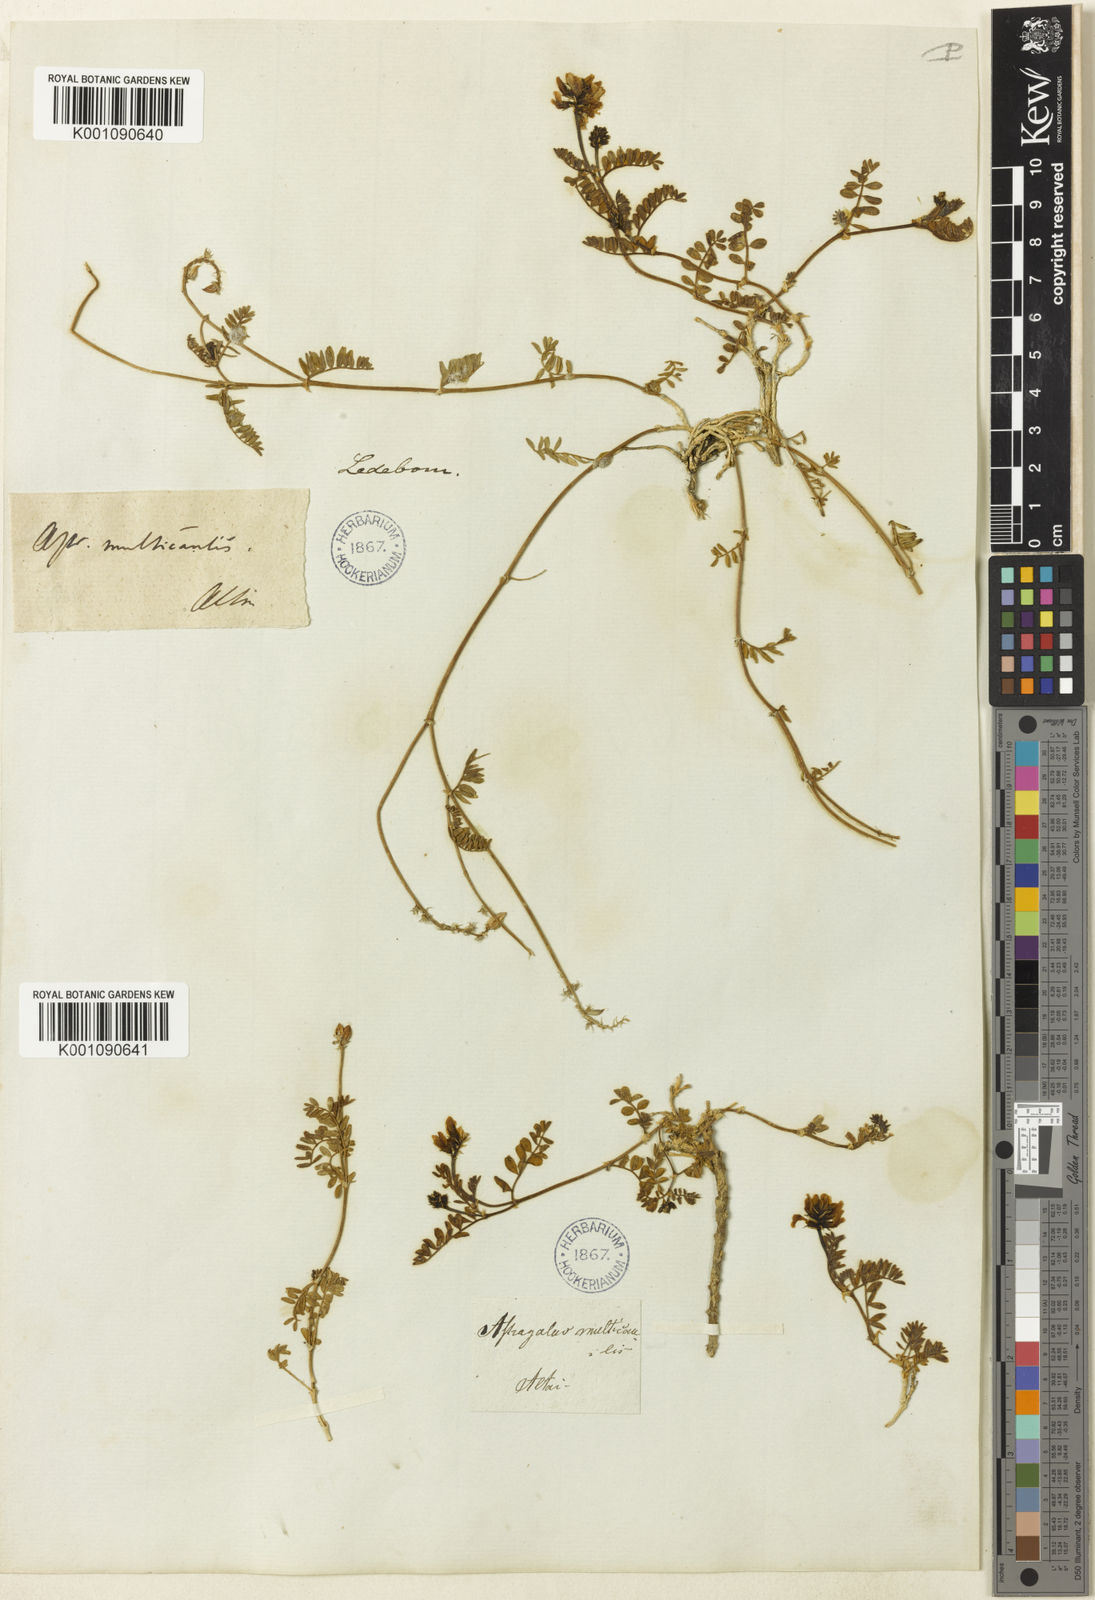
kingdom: Plantae
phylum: Tracheophyta
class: Magnoliopsida
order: Fabales
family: Fabaceae
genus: Astragalus
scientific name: Astragalus
